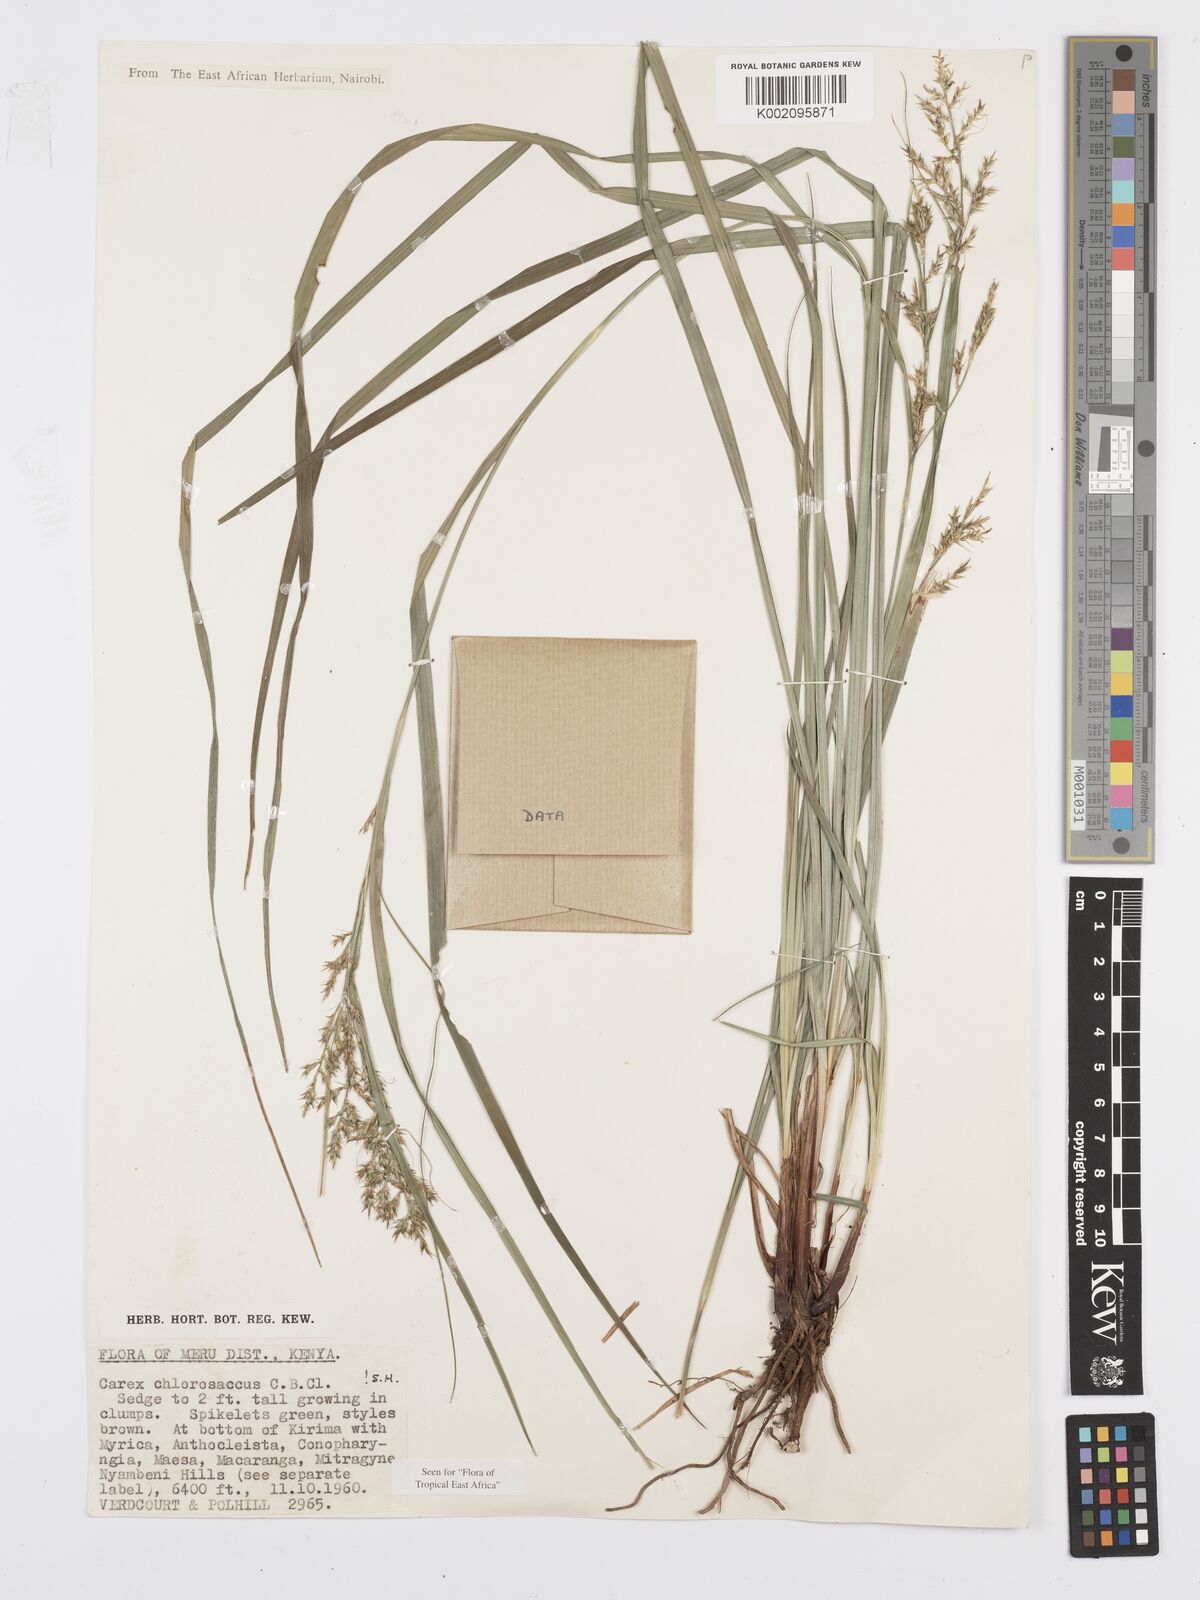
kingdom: Plantae
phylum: Tracheophyta
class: Liliopsida
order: Poales
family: Cyperaceae
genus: Carex
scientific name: Carex chlorosaccus
